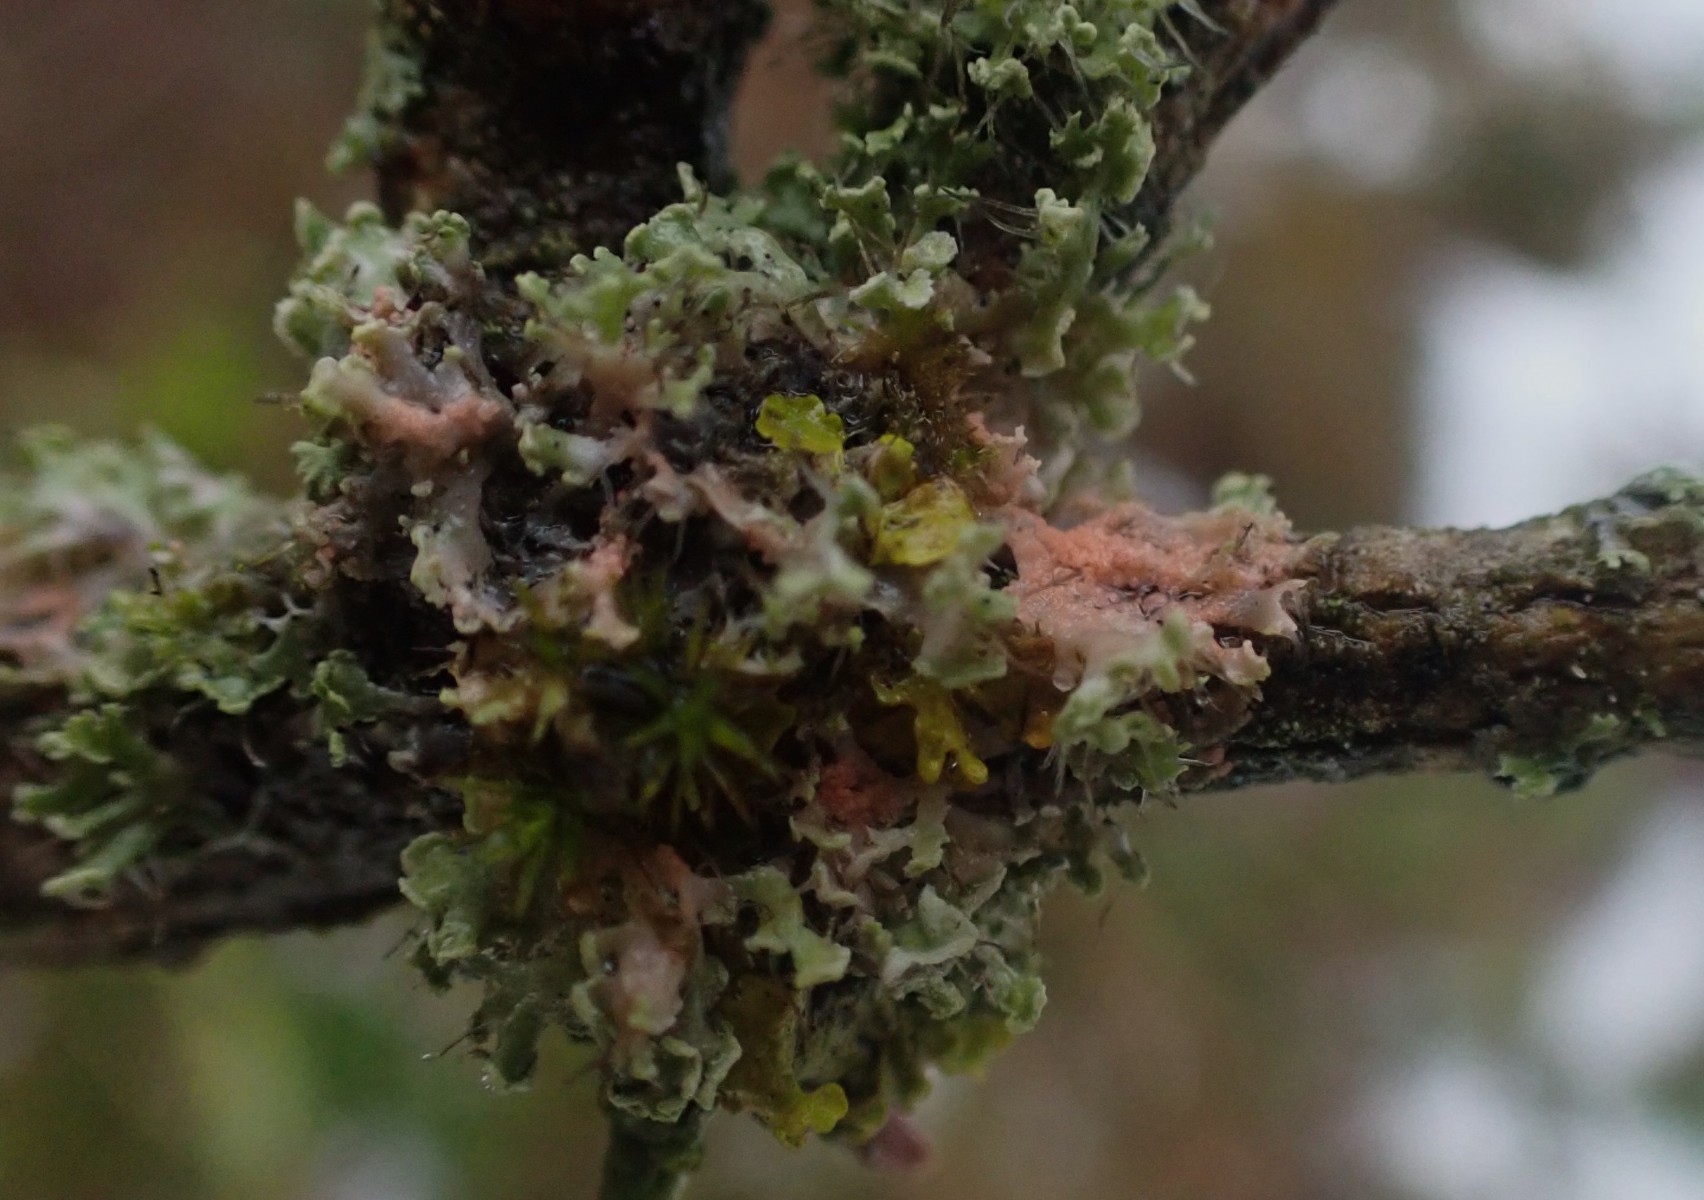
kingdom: Fungi
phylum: Basidiomycota
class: Agaricomycetes
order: Corticiales
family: Corticiaceae
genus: Erythricium
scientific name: Erythricium aurantiacum
